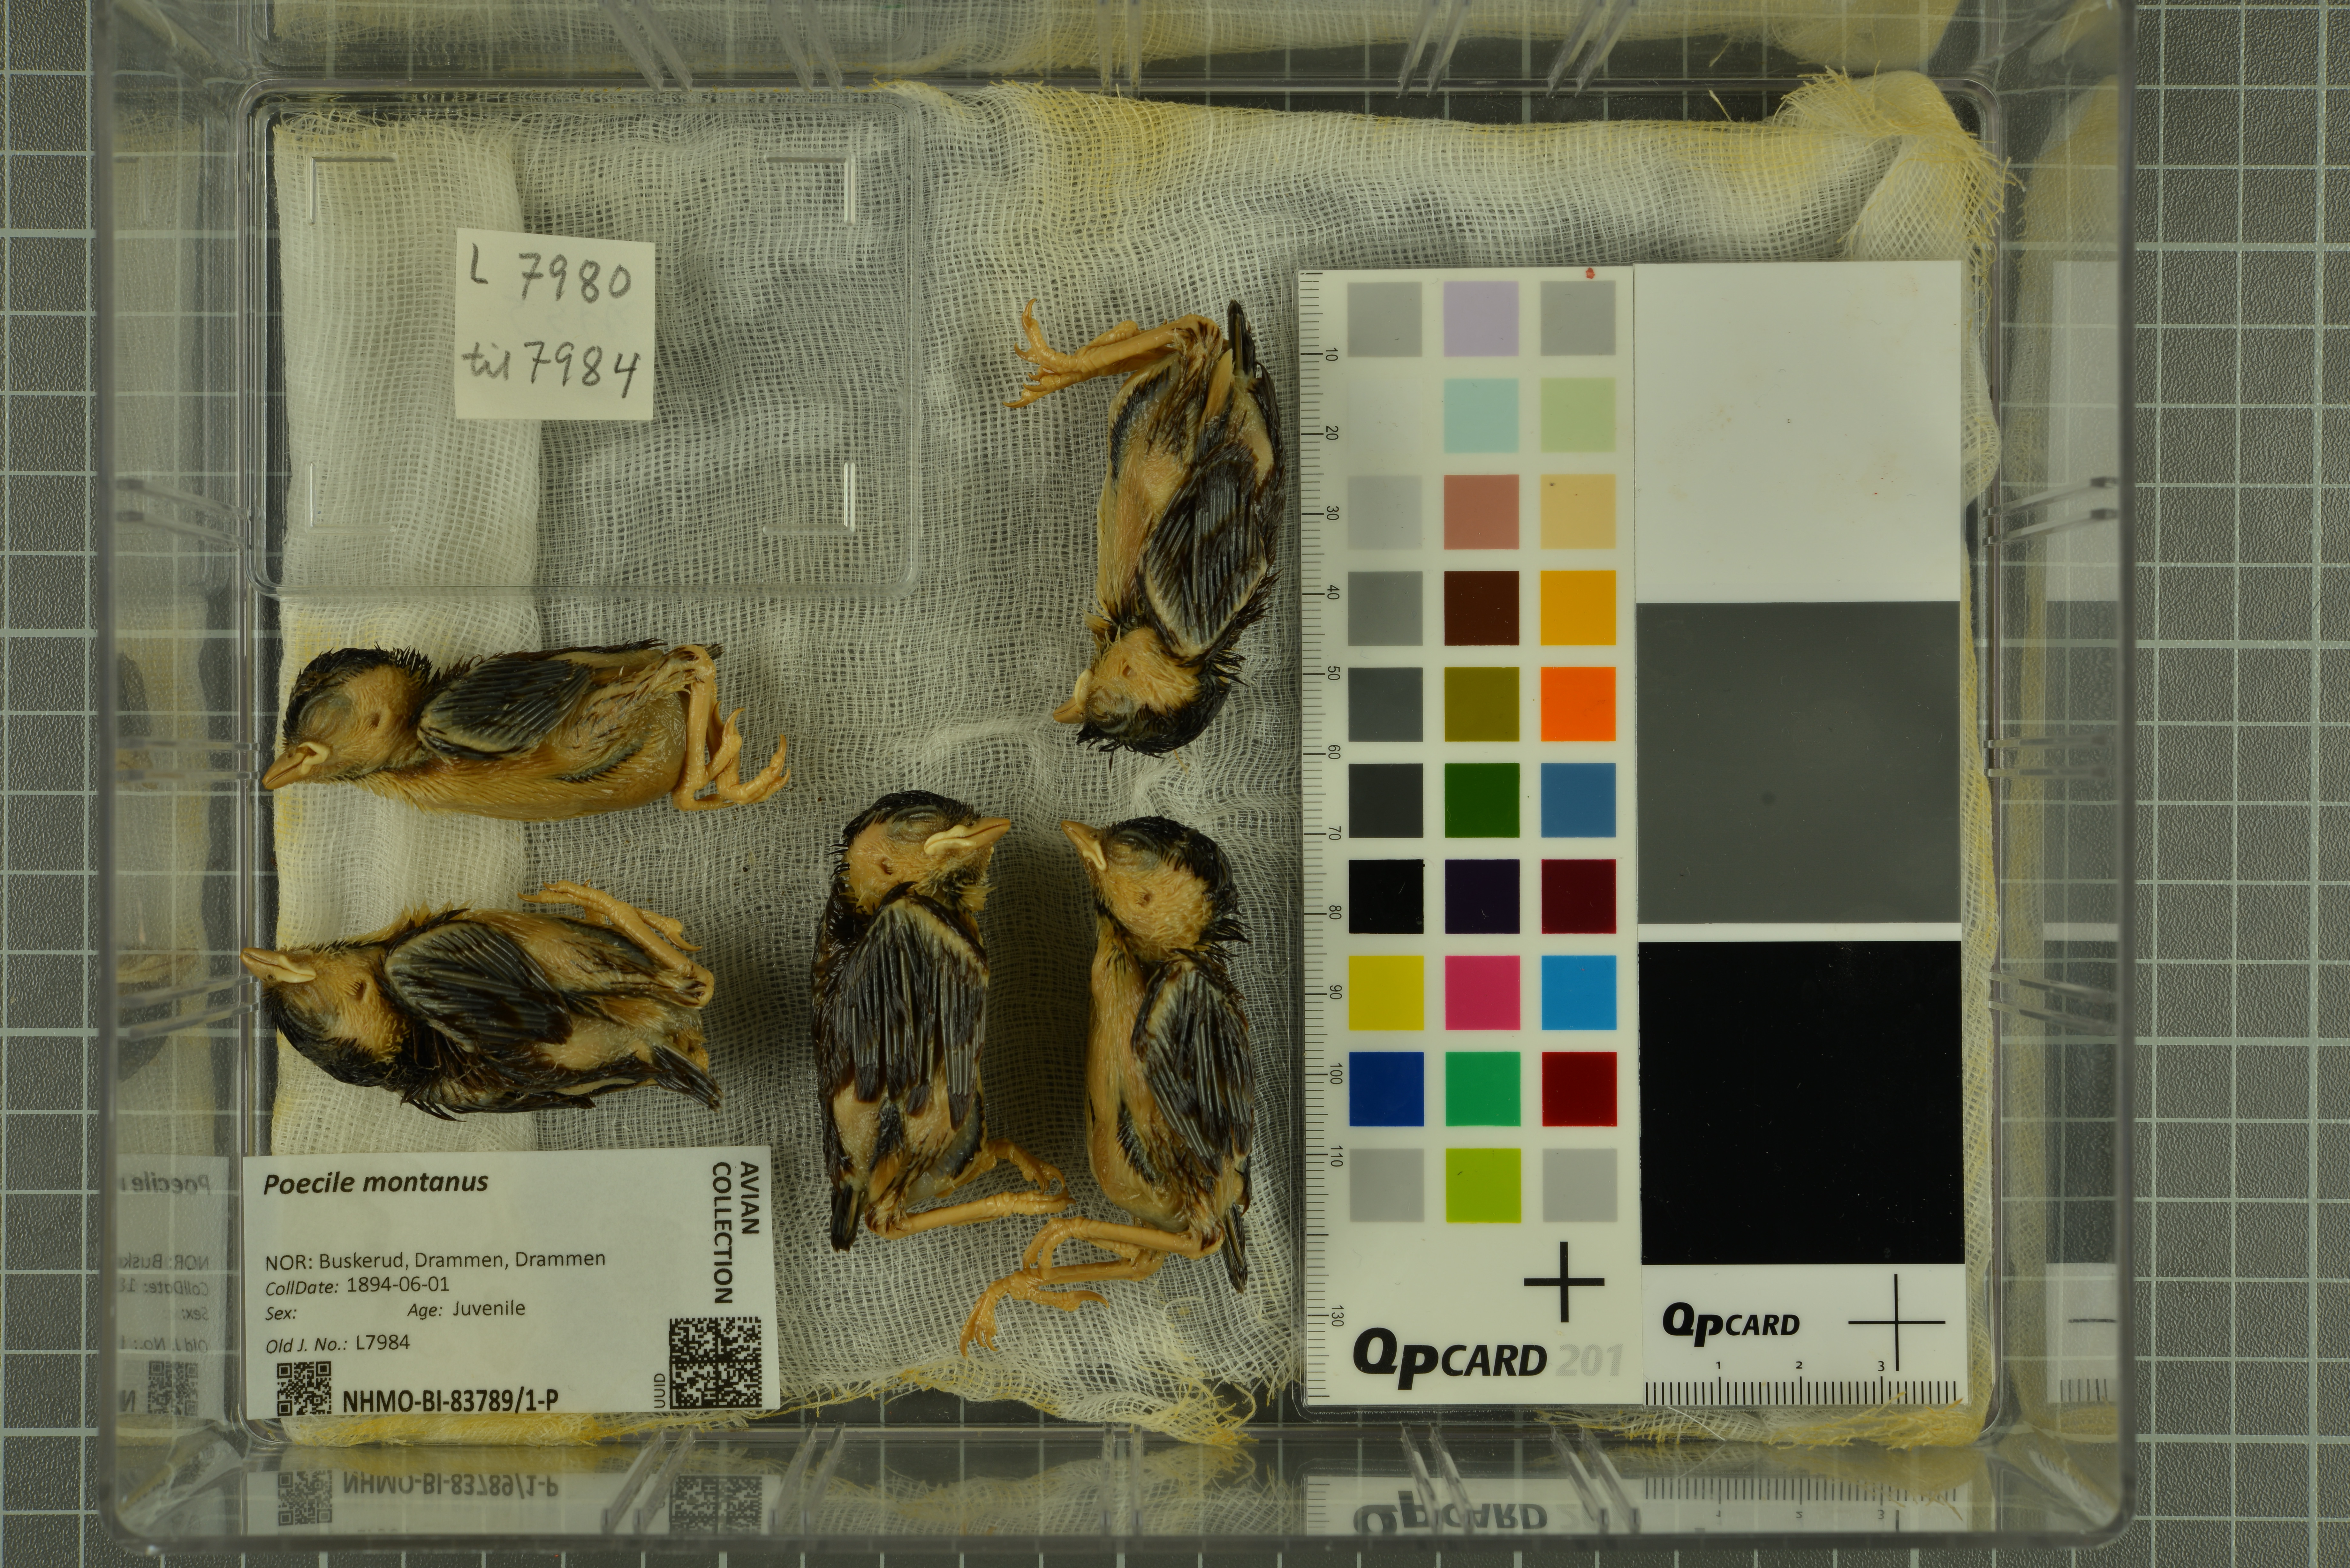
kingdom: Animalia
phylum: Chordata
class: Aves
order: Passeriformes
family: Paridae
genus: Poecile
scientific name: Poecile montanus
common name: Willow tit
